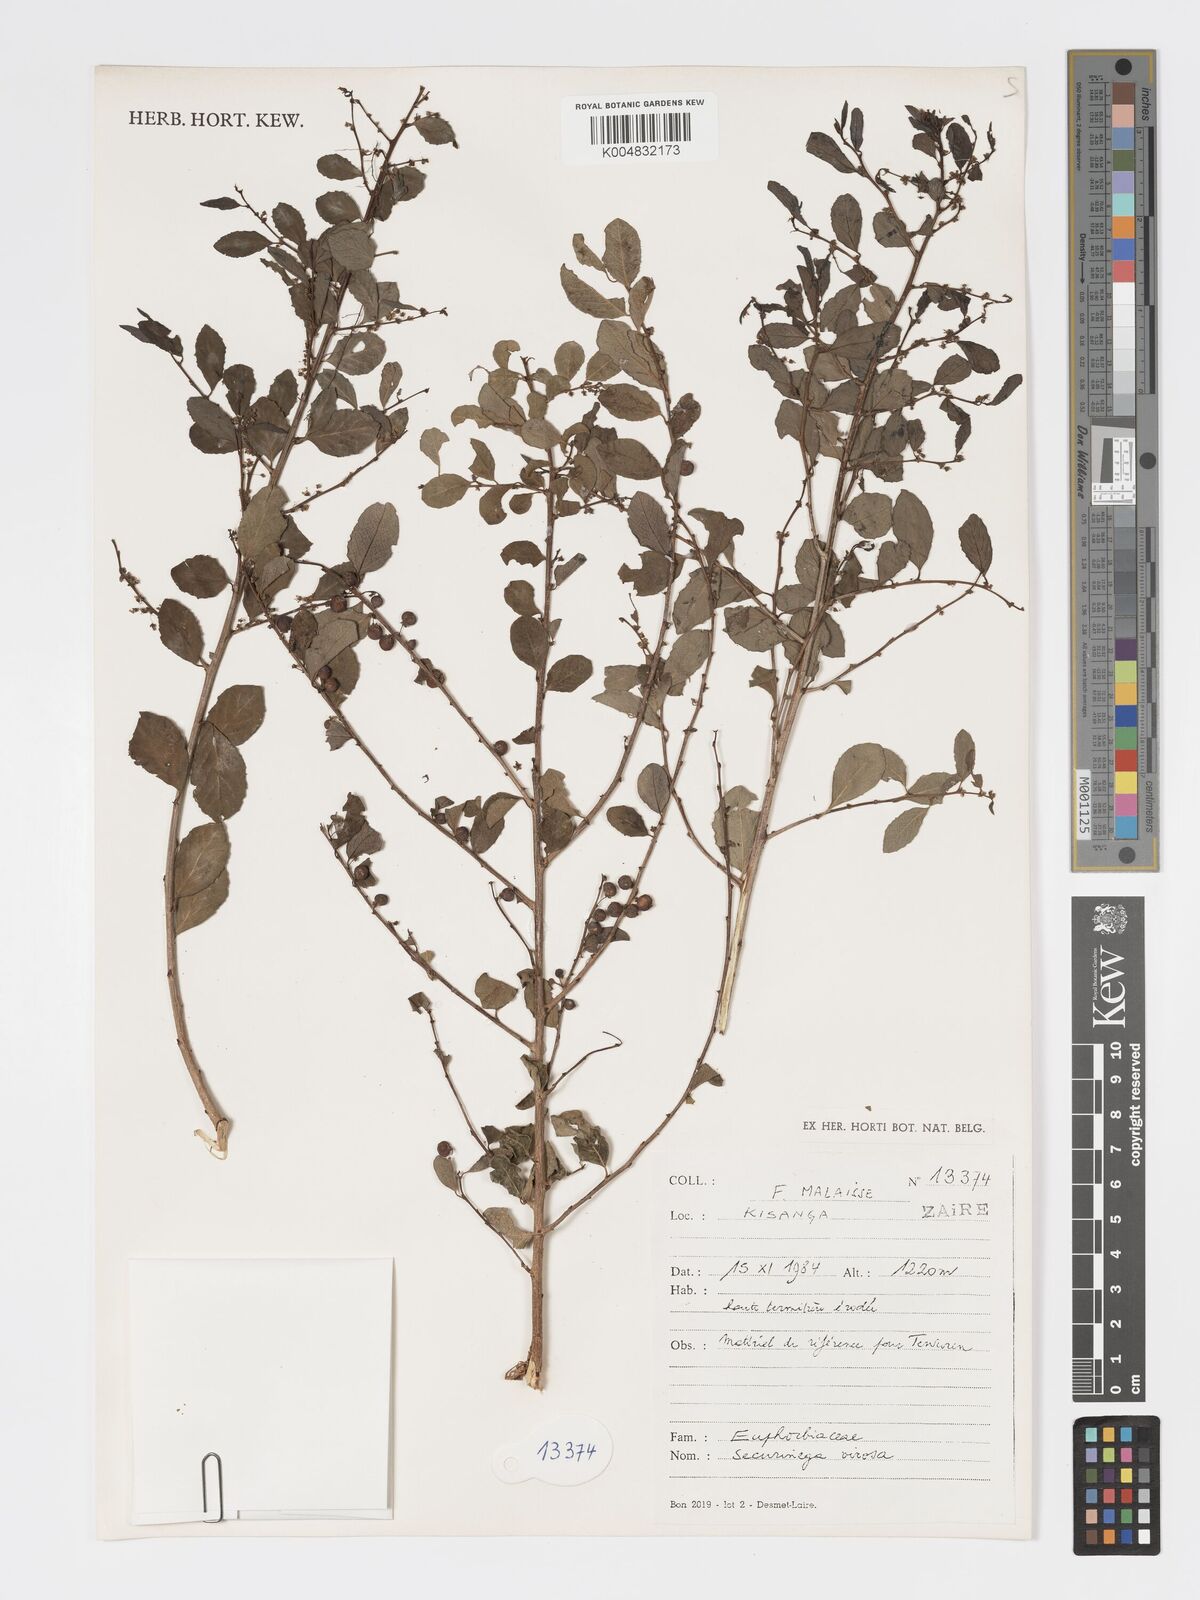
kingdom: Plantae
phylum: Tracheophyta
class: Magnoliopsida
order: Malpighiales
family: Phyllanthaceae
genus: Flueggea
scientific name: Flueggea virosa
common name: Common bushweed
